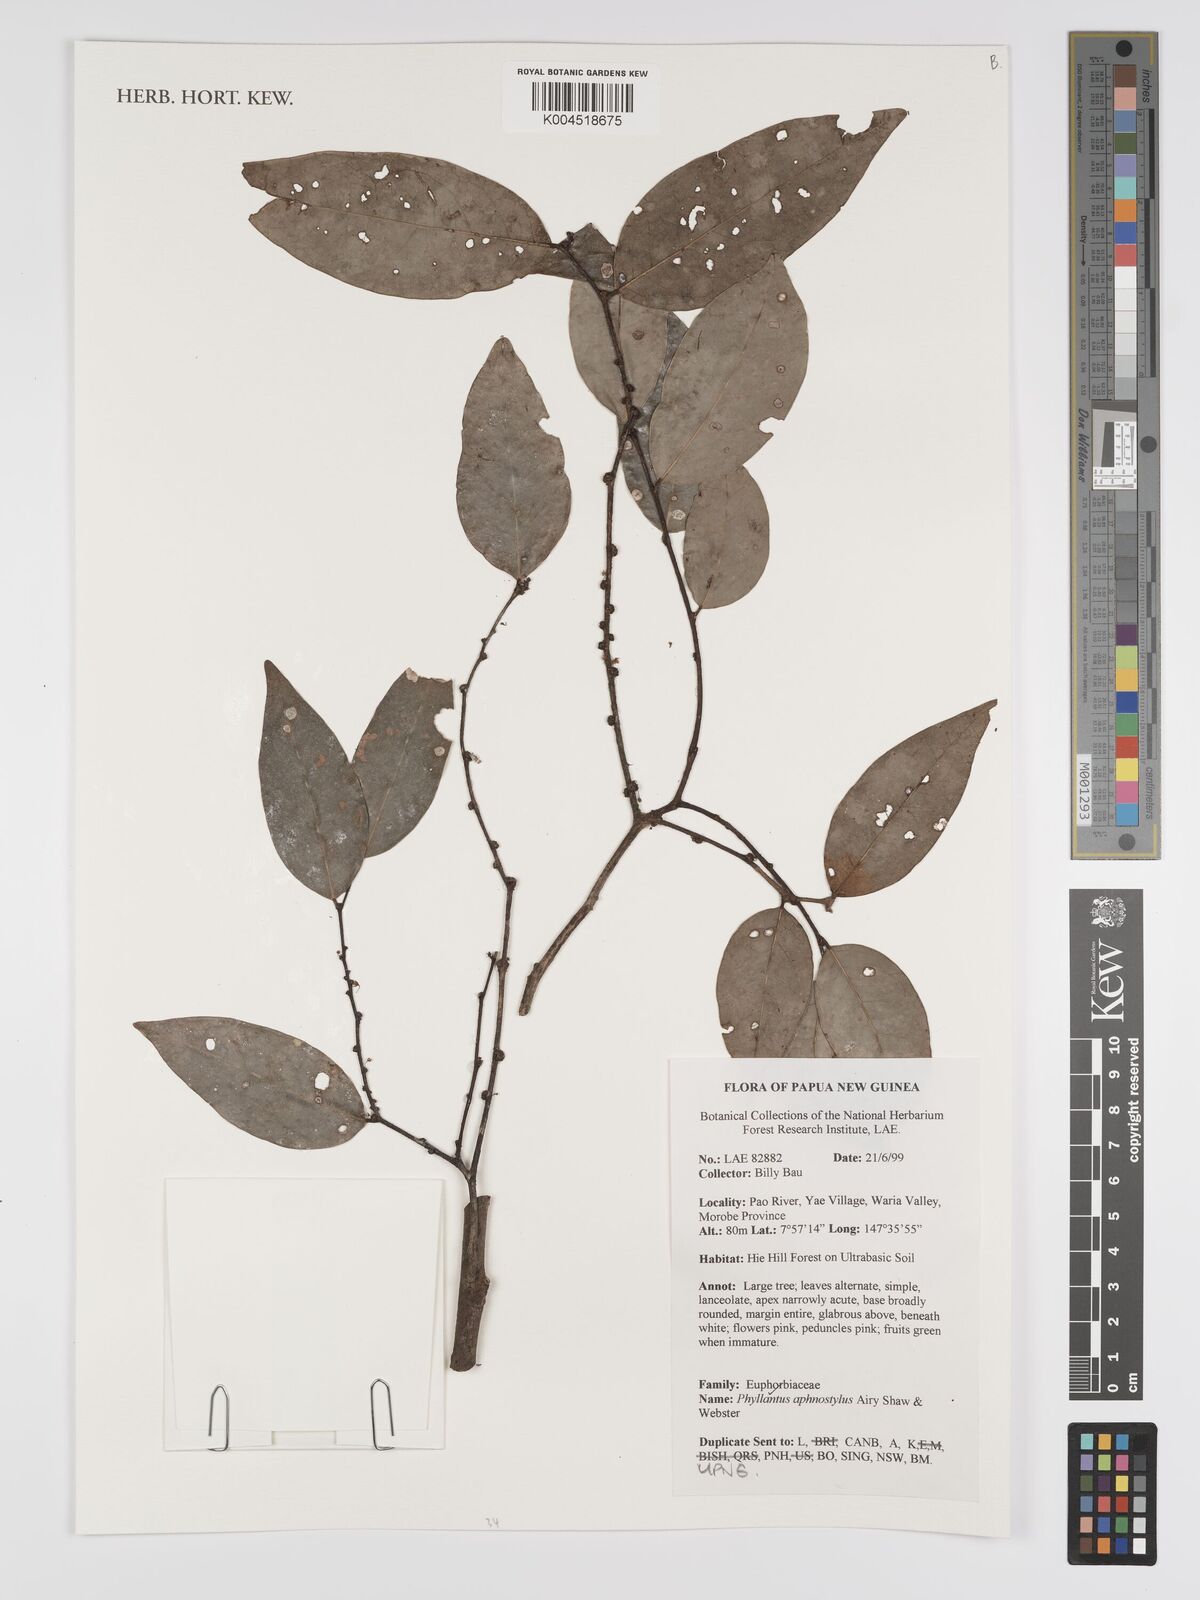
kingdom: Plantae
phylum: Tracheophyta
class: Magnoliopsida
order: Malpighiales
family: Phyllanthaceae
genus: Phyllanthus
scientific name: Phyllanthus aphanostylus
